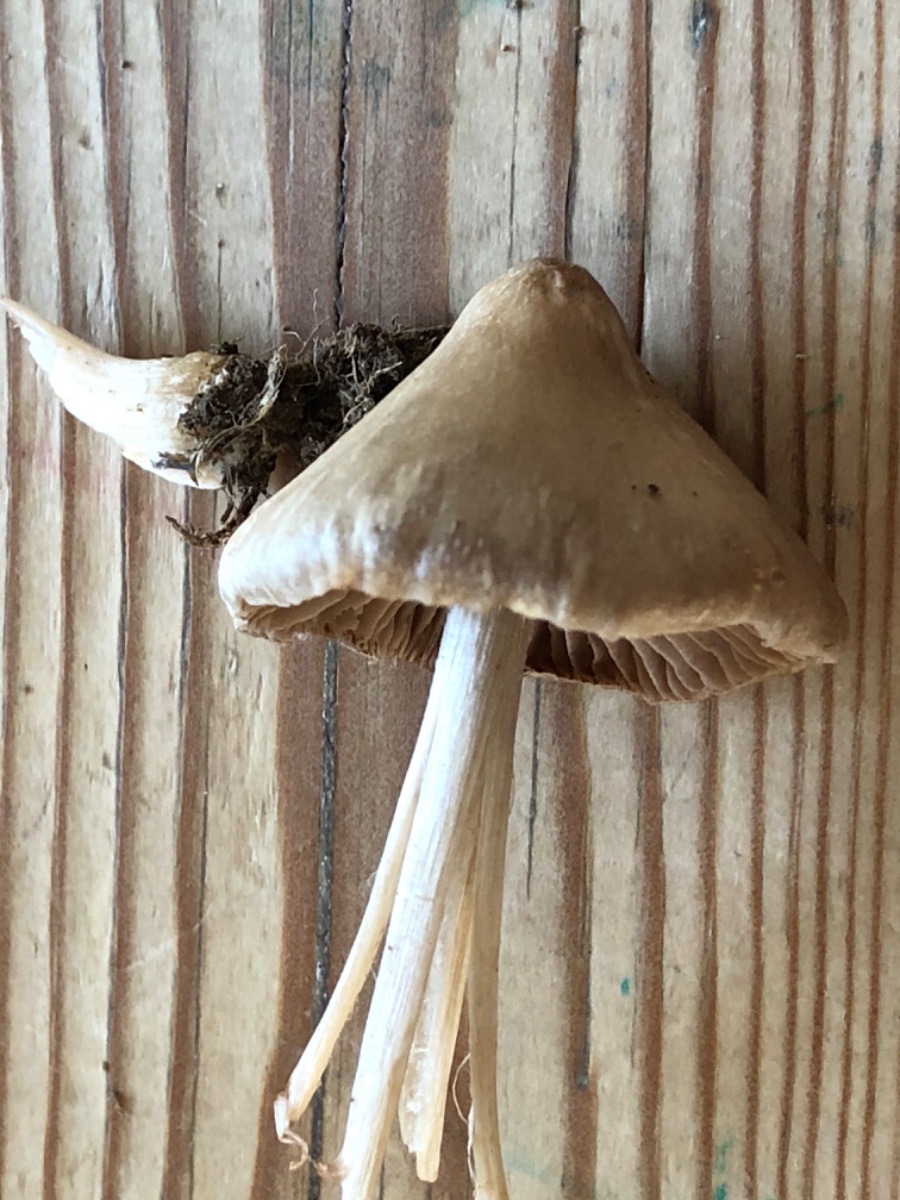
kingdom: Fungi
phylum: Basidiomycota
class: Agaricomycetes
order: Agaricales
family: Entolomataceae
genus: Entoloma
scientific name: Entoloma ameides
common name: sødlig rødblad
